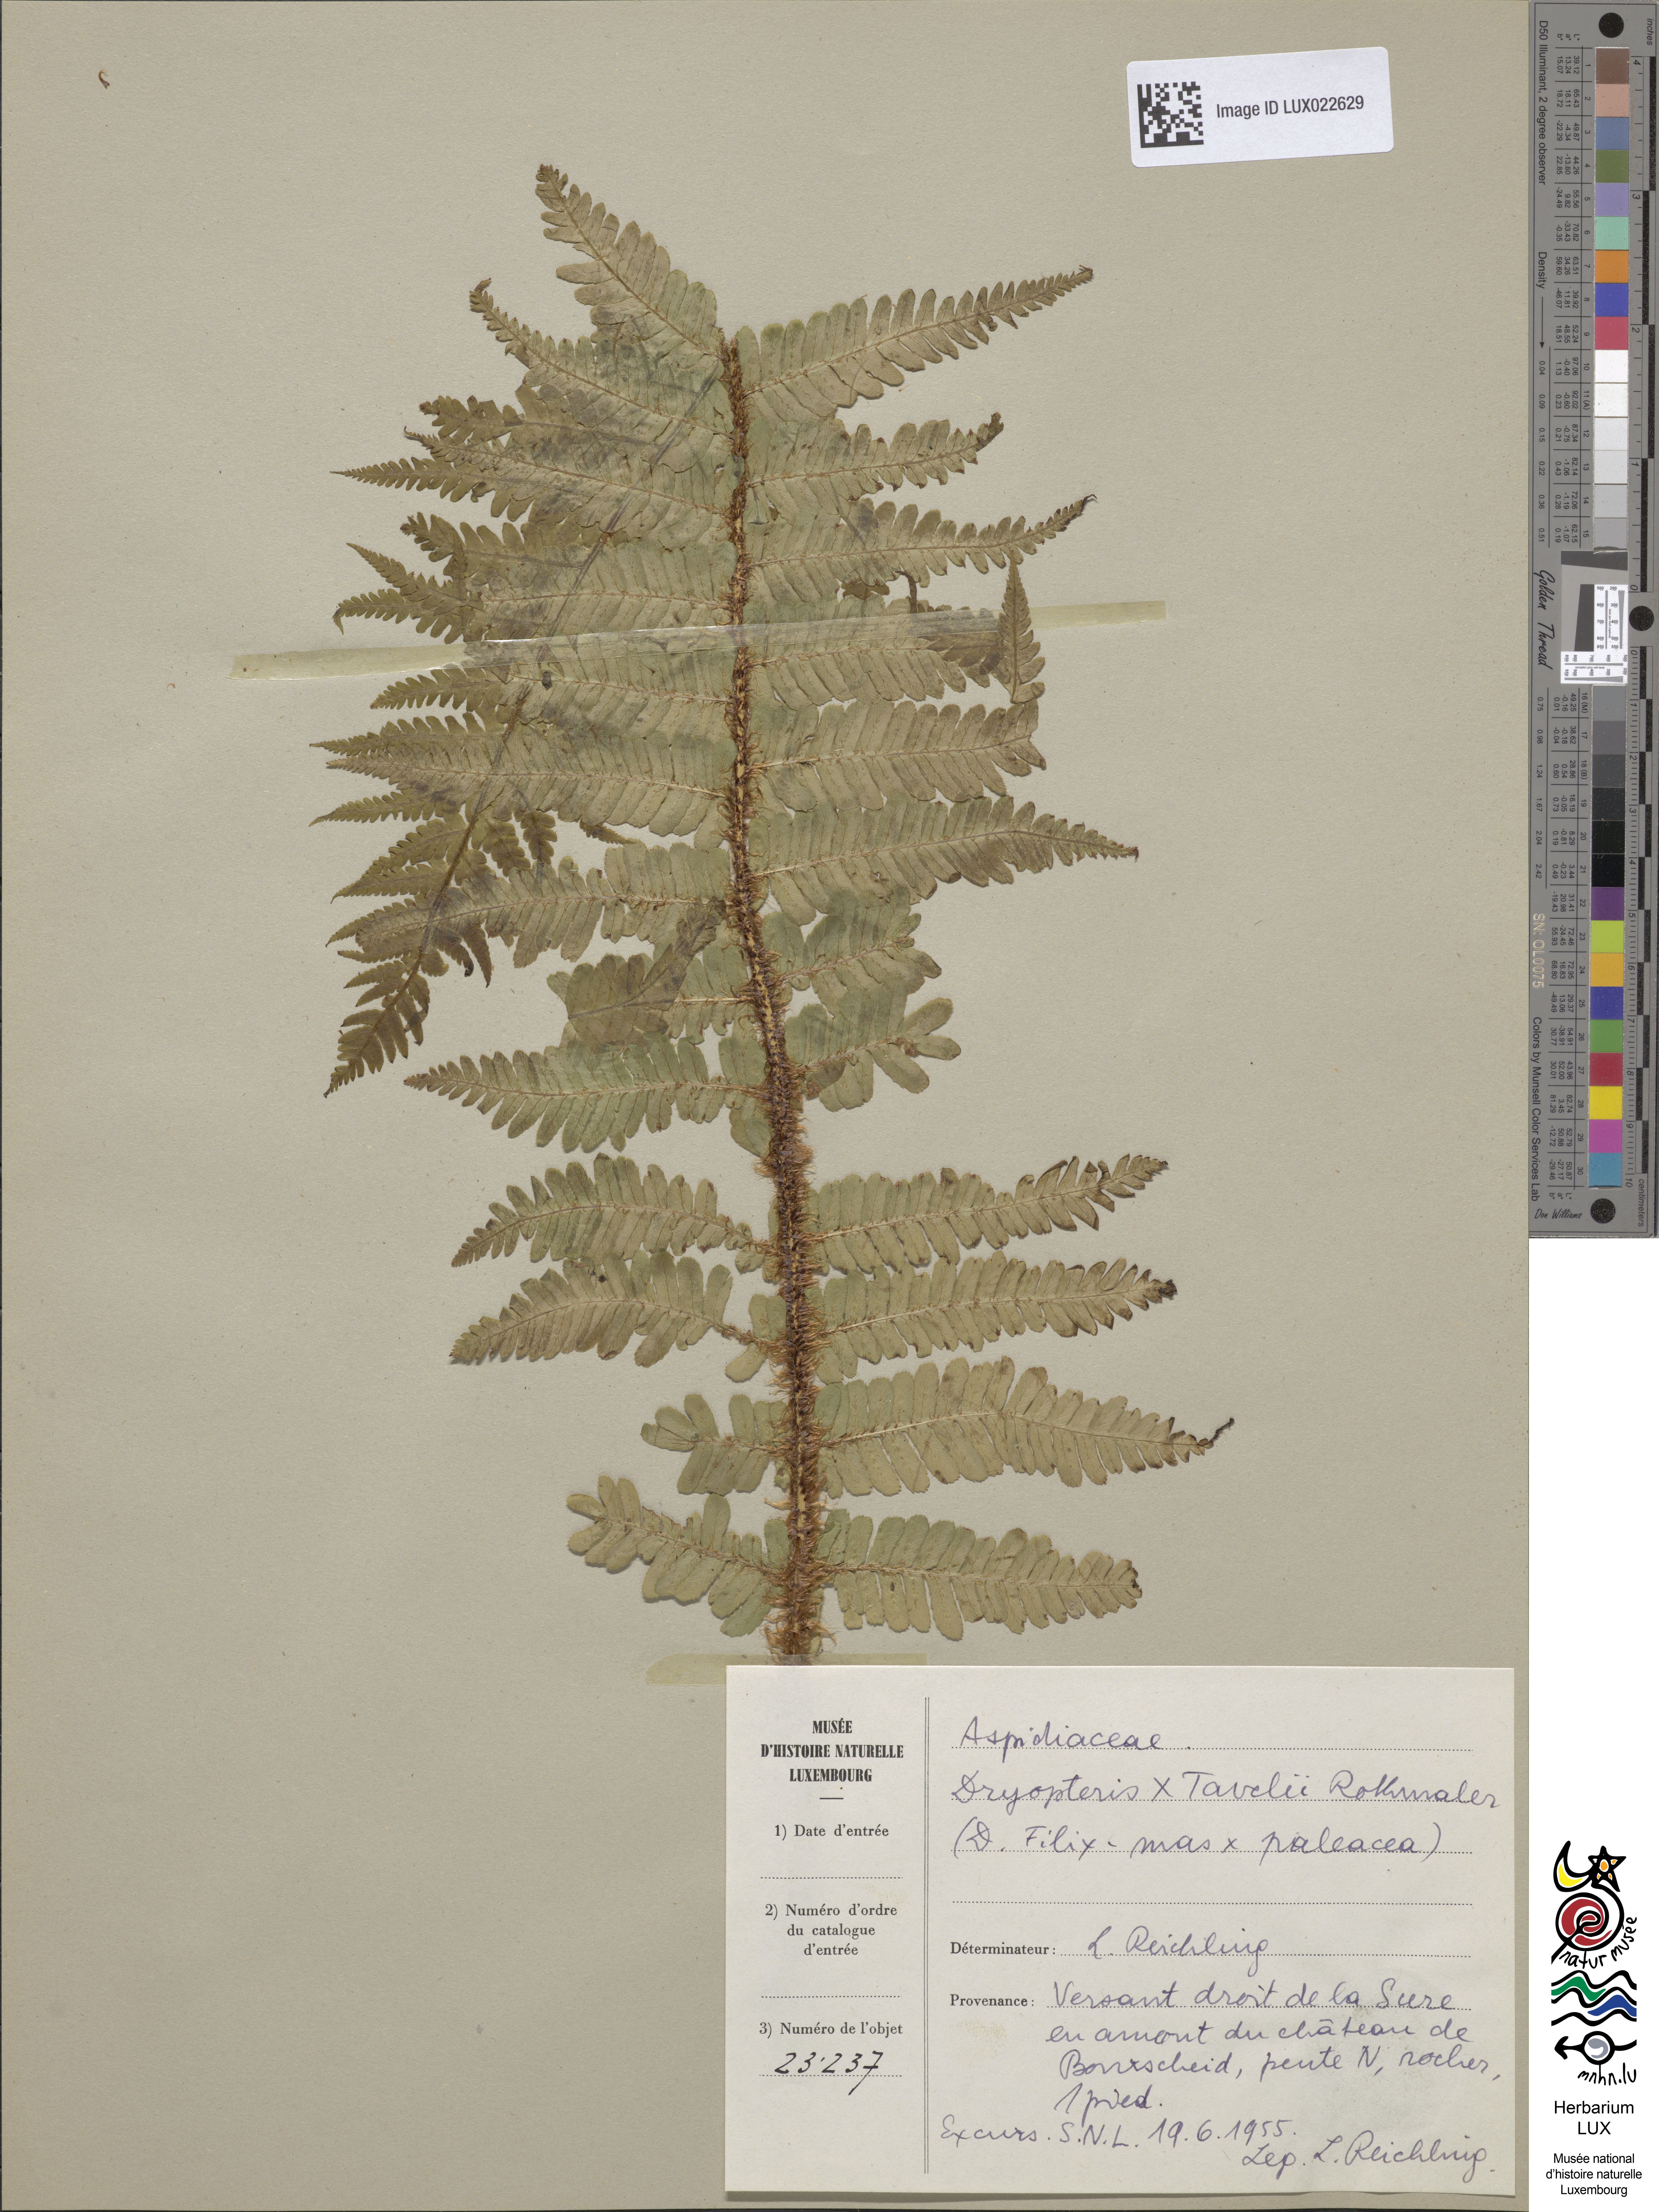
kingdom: Plantae
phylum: Tracheophyta
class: Polypodiopsida
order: Polypodiales
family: Dryopteridaceae
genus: Dryopteris
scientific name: Dryopteris borreri
